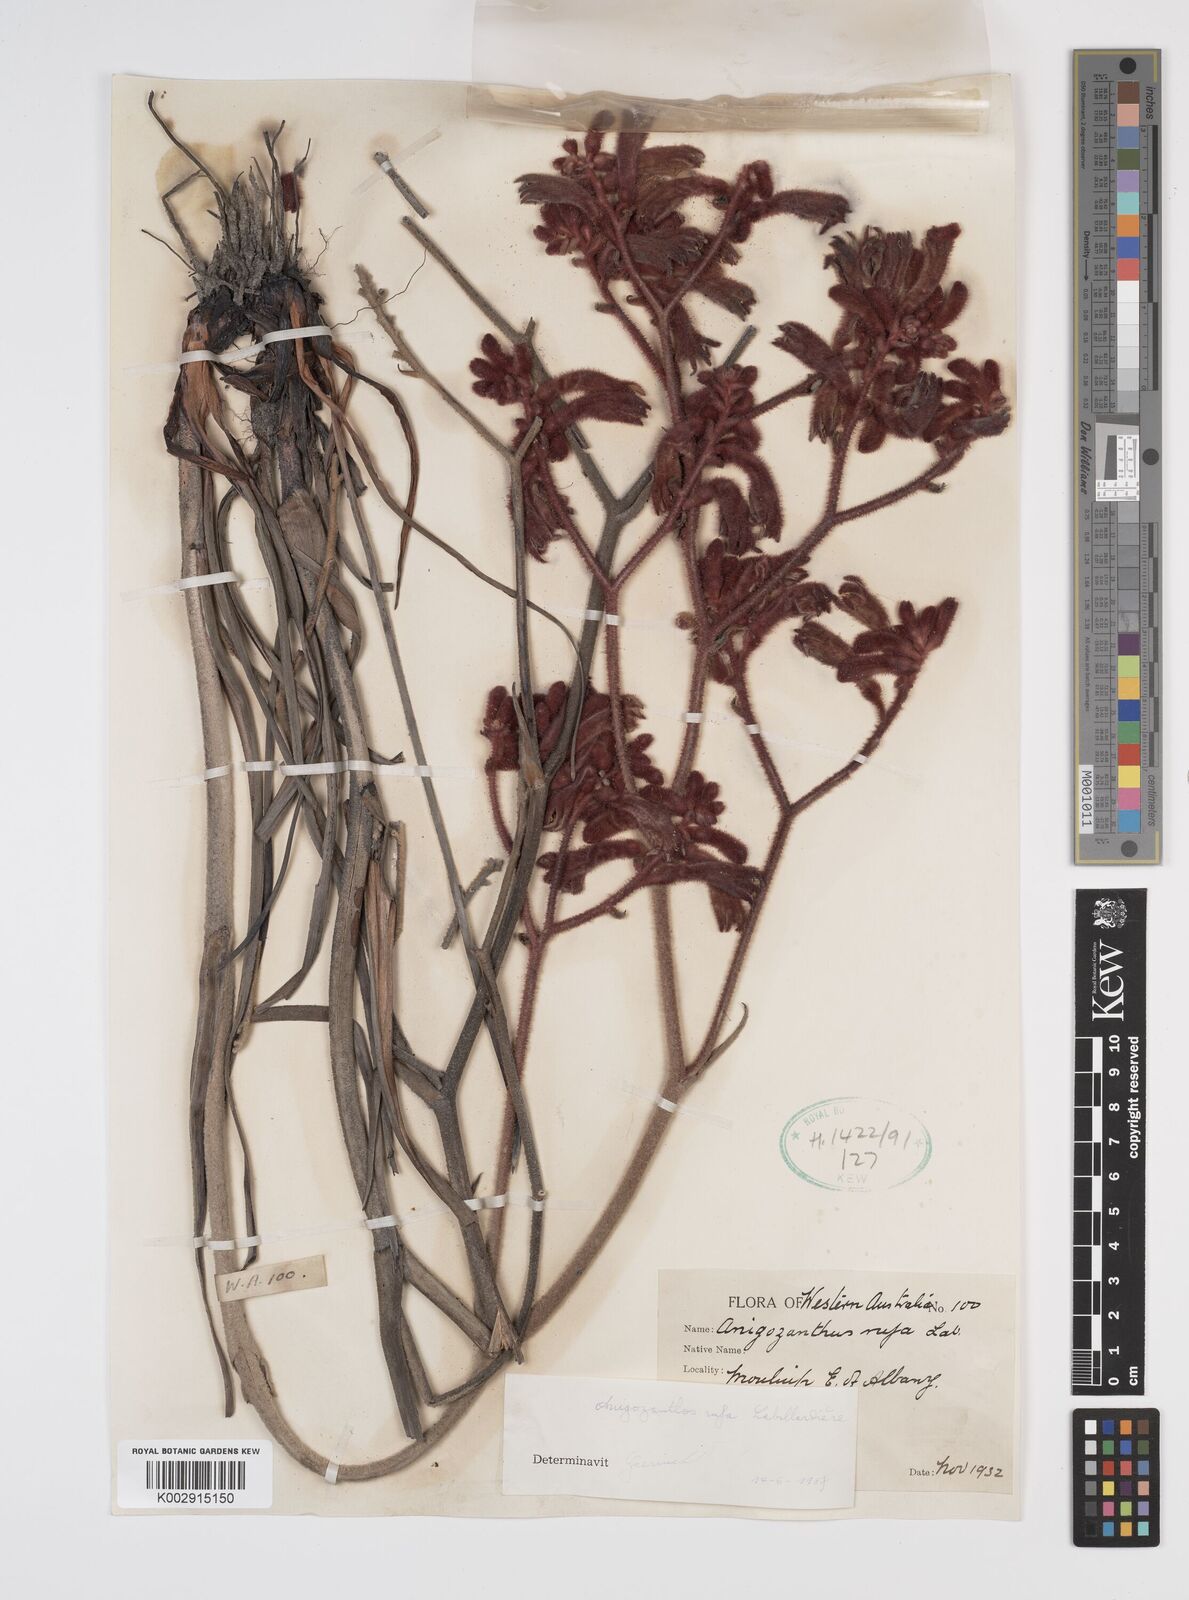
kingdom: Plantae
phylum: Tracheophyta
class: Liliopsida
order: Commelinales
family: Haemodoraceae
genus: Anigozanthos
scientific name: Anigozanthos rufus
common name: Red kangaroo-paw
